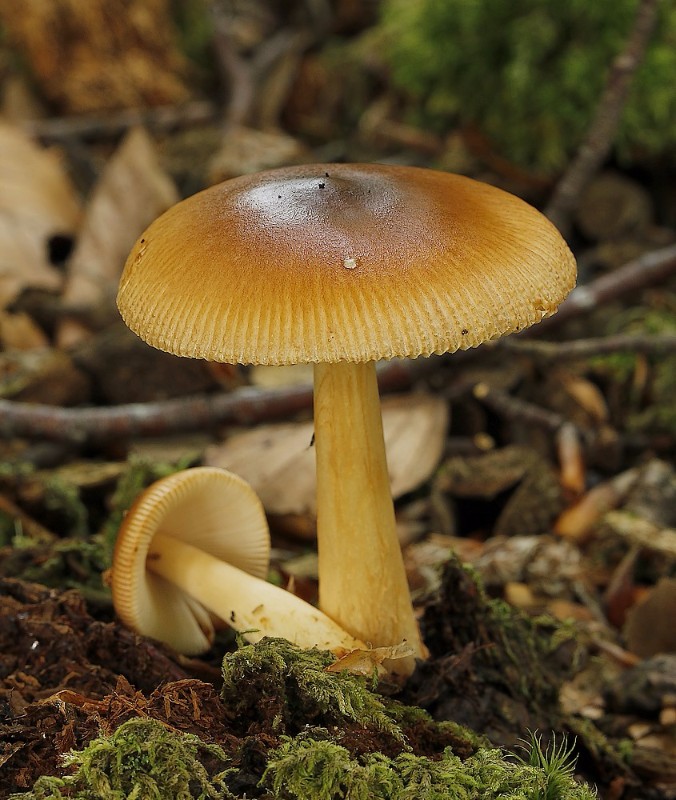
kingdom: Fungi
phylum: Basidiomycota
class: Agaricomycetes
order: Agaricales
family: Amanitaceae
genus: Amanita
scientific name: Amanita
